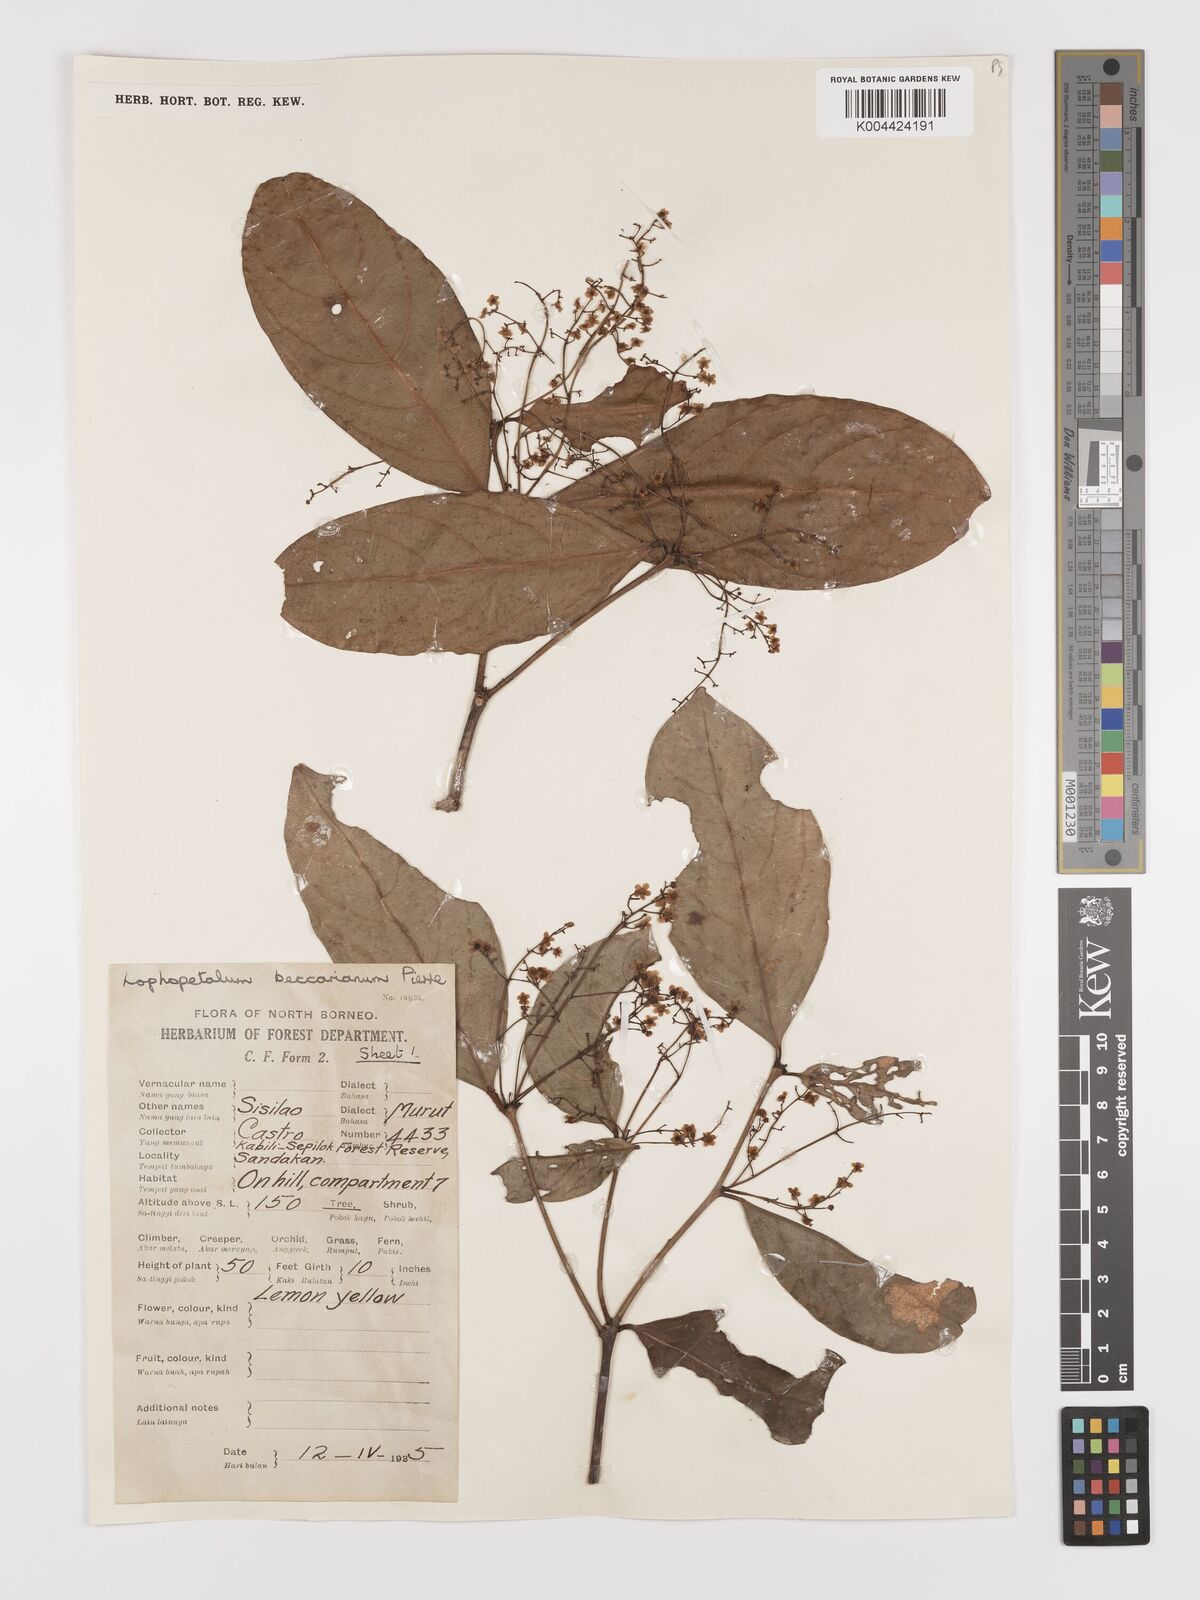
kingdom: Plantae
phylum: Tracheophyta
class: Magnoliopsida
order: Celastrales
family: Celastraceae
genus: Lophopetalum
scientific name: Lophopetalum beccarianum
